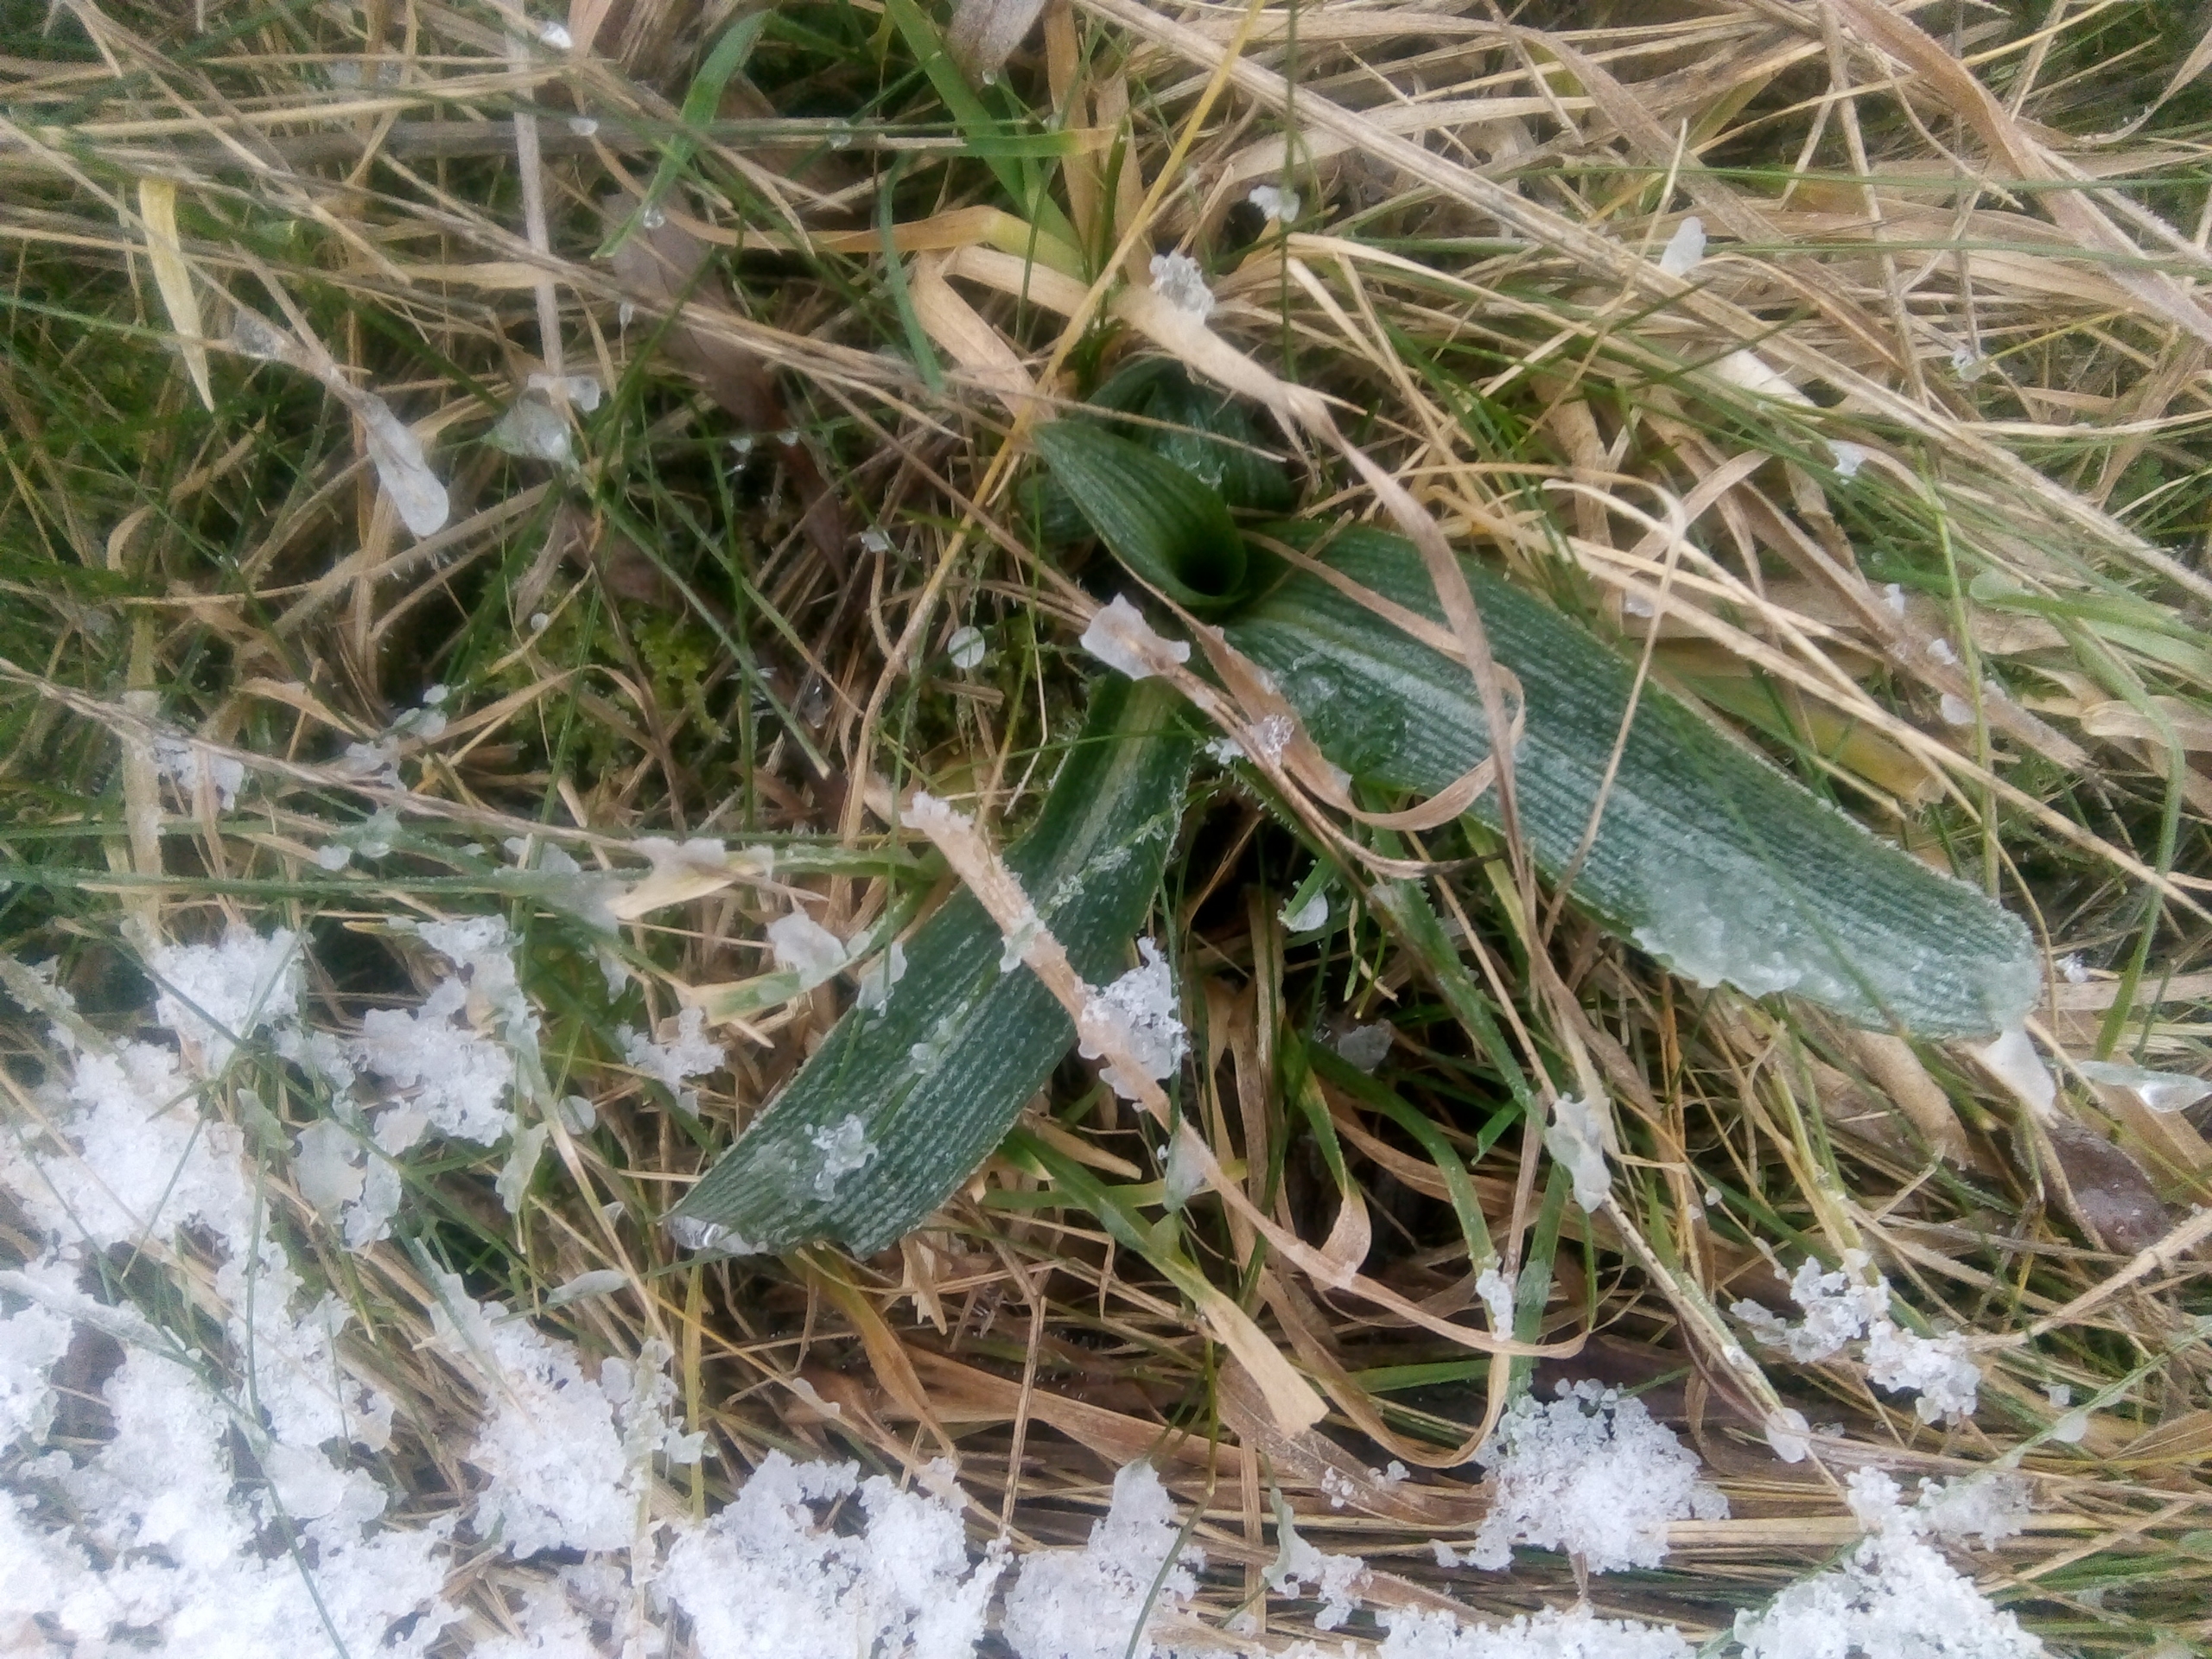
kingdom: Plantae
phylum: Tracheophyta
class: Liliopsida
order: Asparagales
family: Orchidaceae
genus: Ophrys
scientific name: Ophrys apifera
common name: Biblomst
